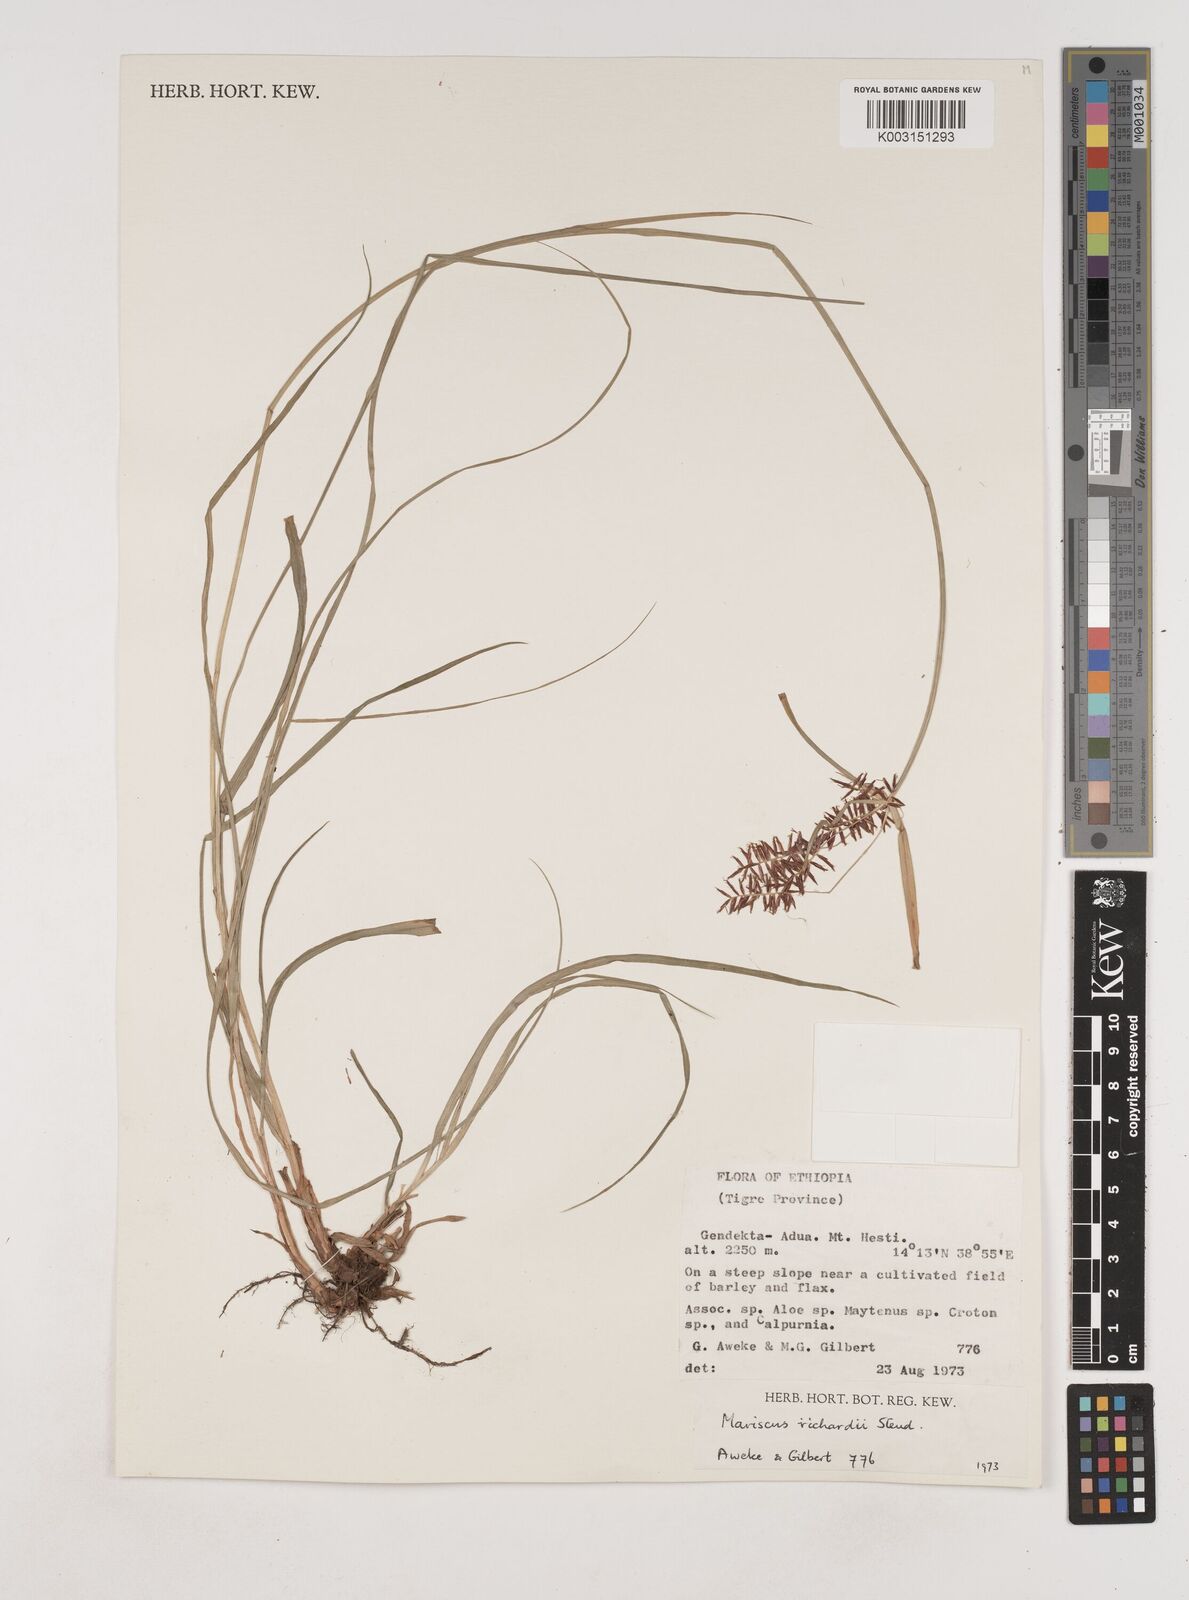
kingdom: Plantae
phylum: Tracheophyta
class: Liliopsida
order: Poales
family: Cyperaceae
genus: Cyperus
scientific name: Cyperus impubes
